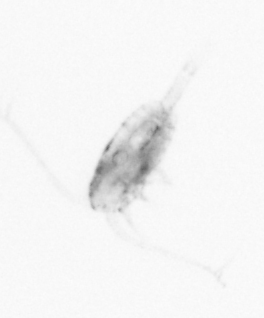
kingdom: Animalia
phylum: Arthropoda
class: Copepoda
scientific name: Copepoda
